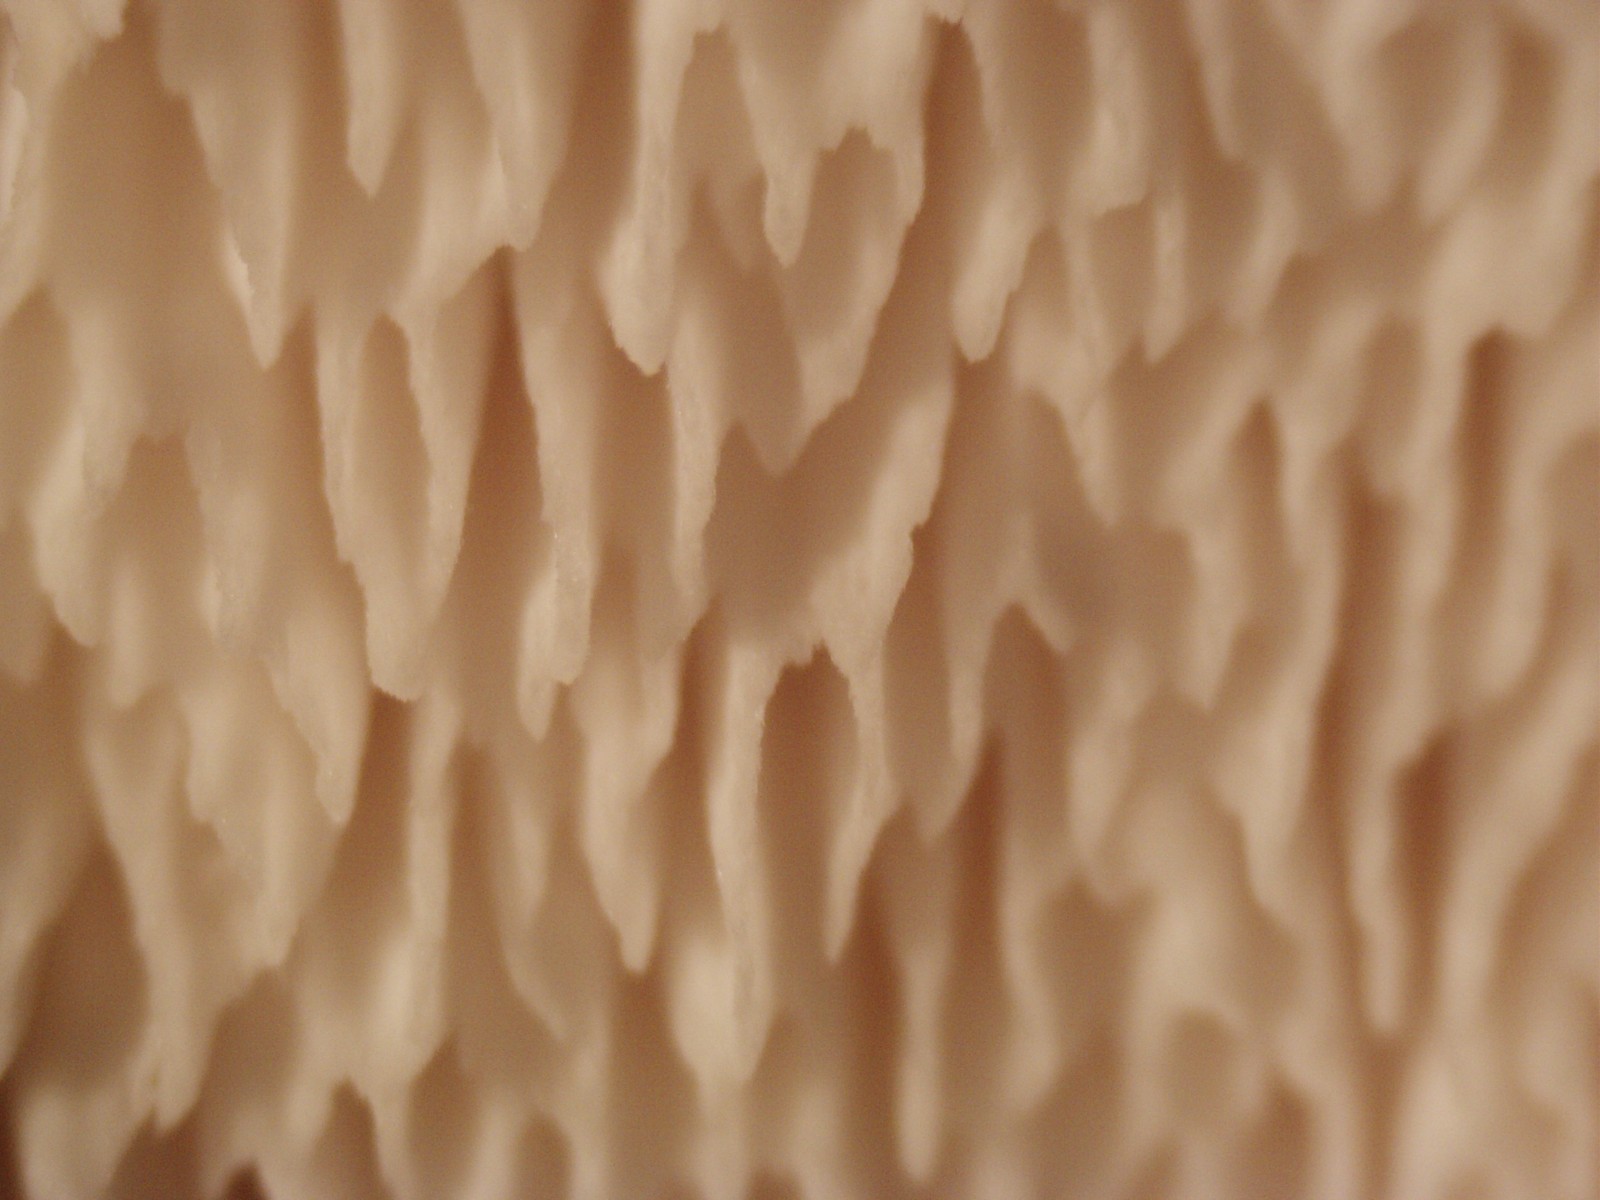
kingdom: Fungi
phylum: Basidiomycota
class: Agaricomycetes
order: Polyporales
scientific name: Polyporales
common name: poresvampordenen
